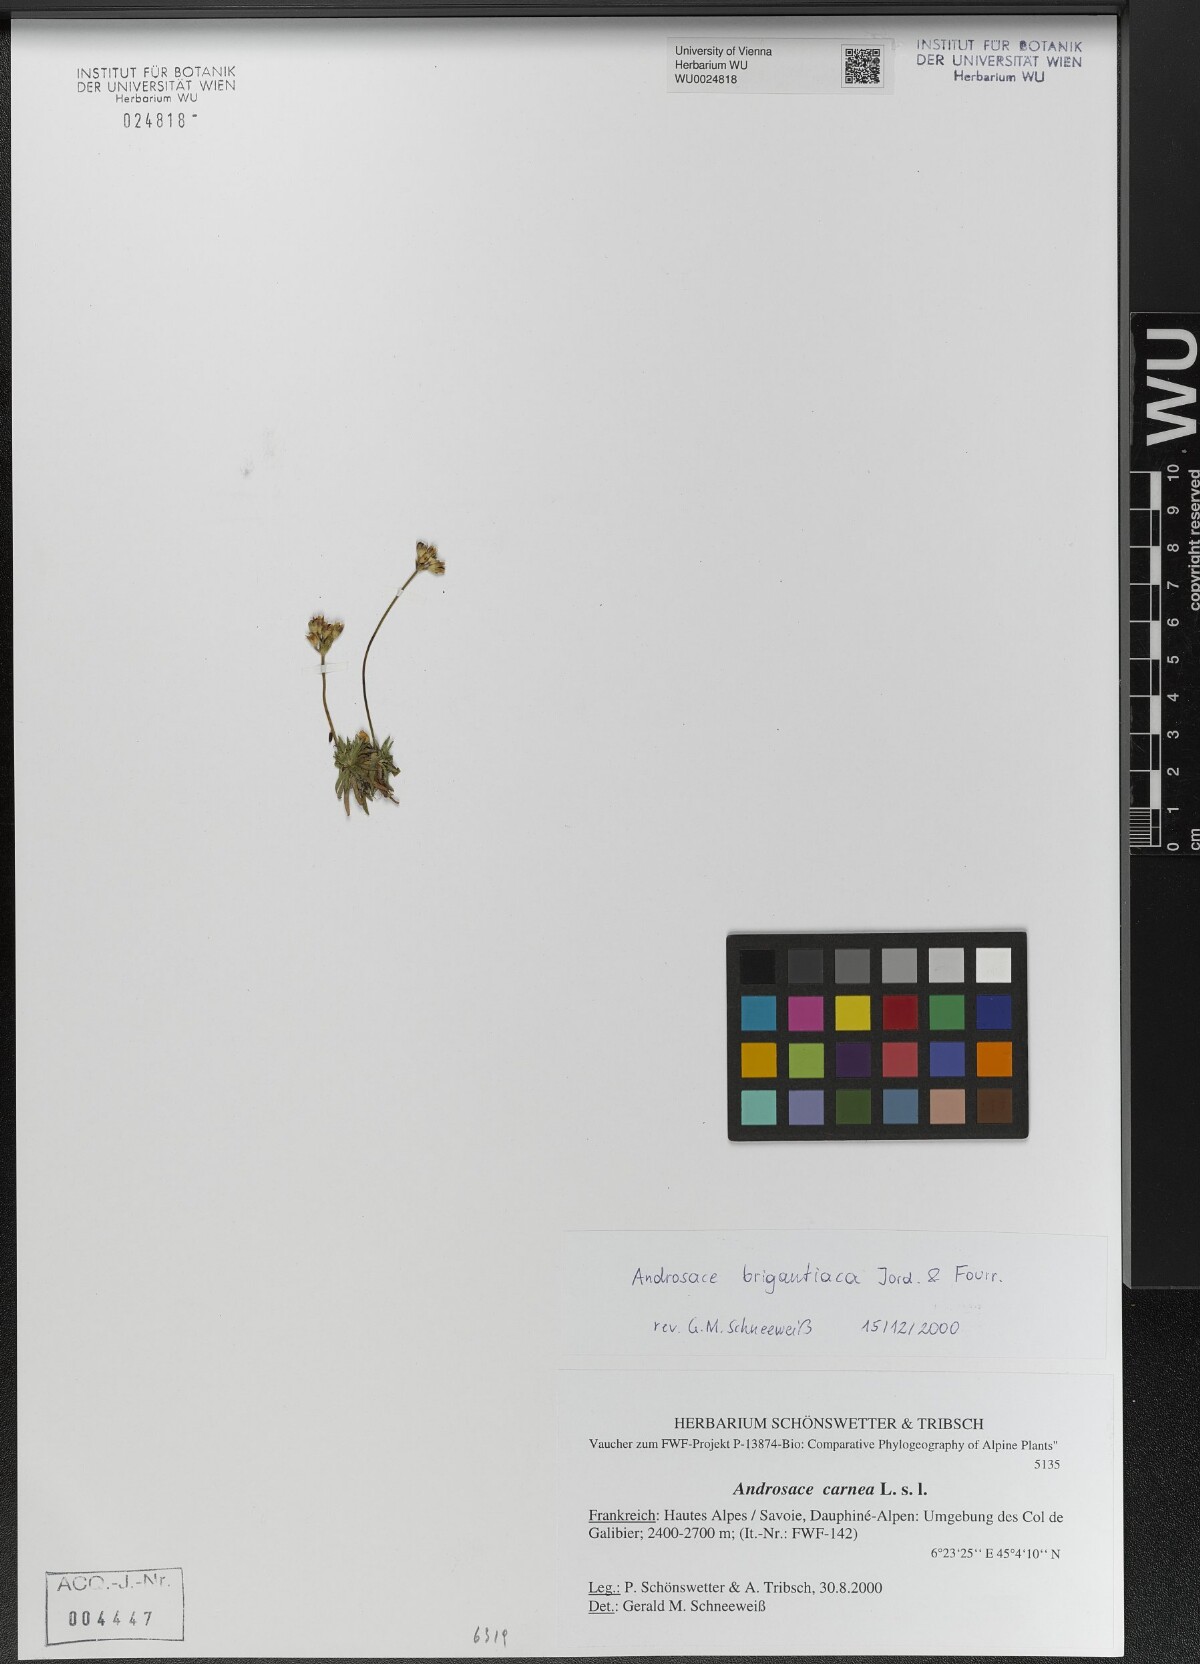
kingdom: Plantae
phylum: Tracheophyta
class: Magnoliopsida
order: Ericales
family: Primulaceae
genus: Androsace
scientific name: Androsace adfinis
